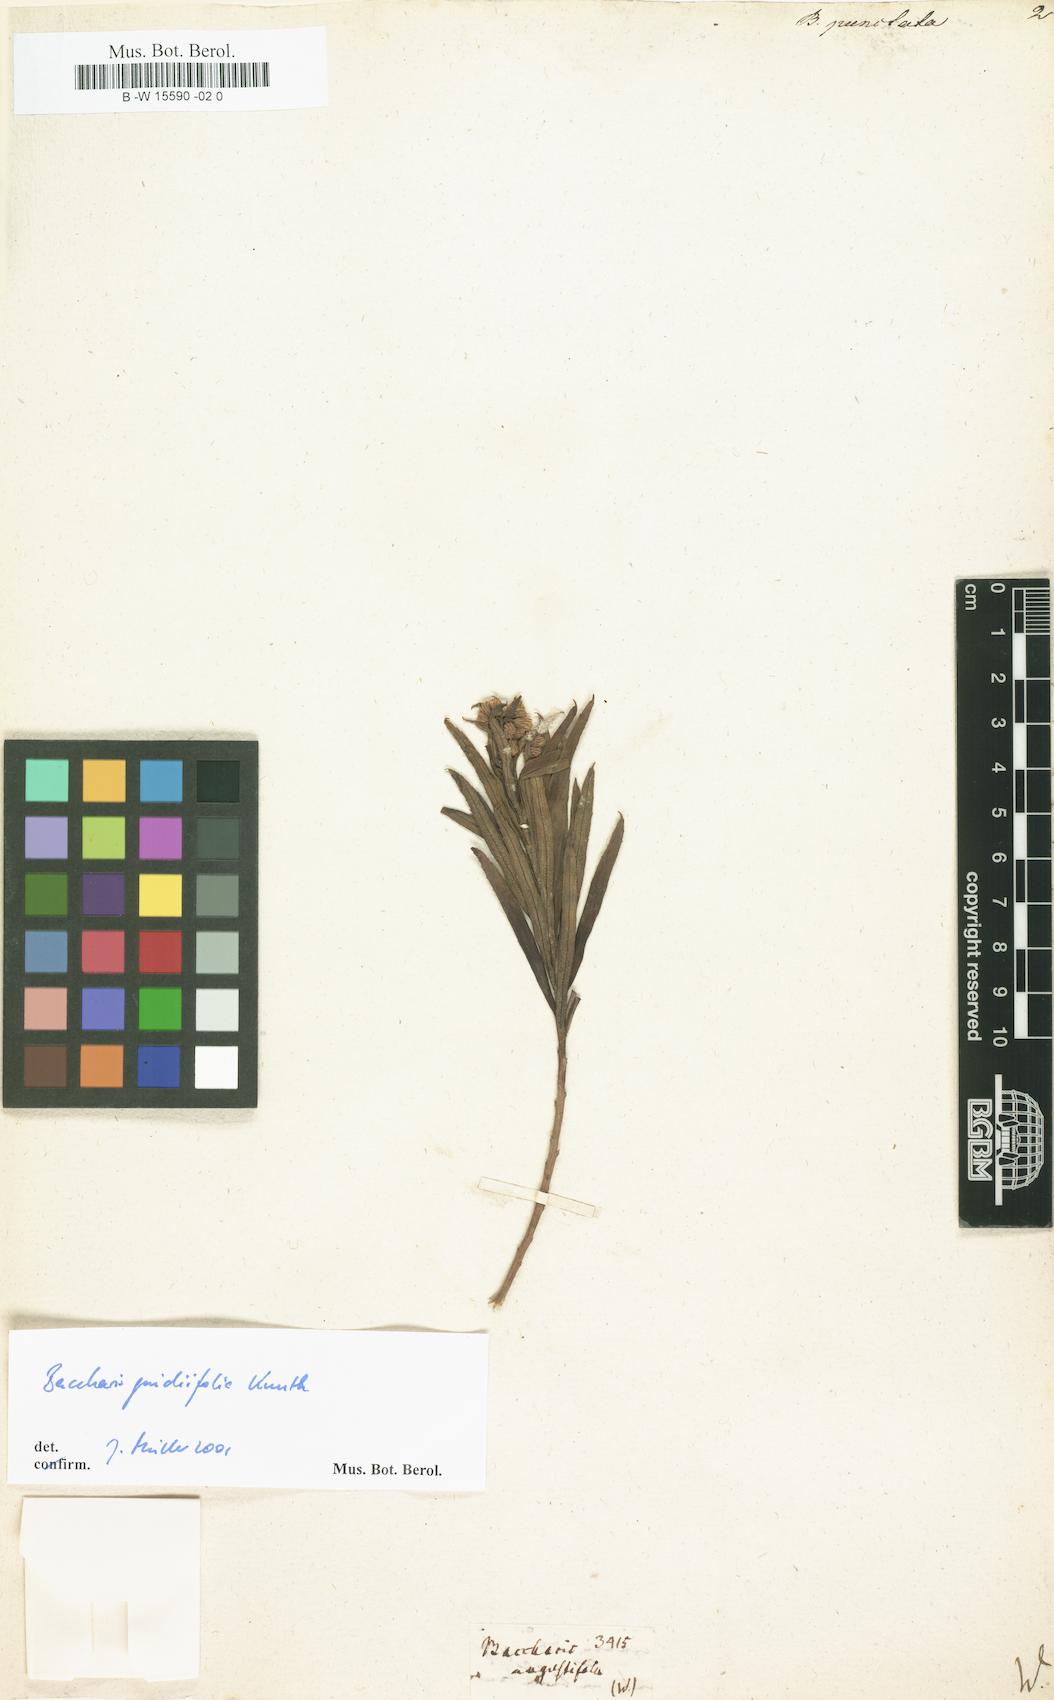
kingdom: Plantae
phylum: Tracheophyta
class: Magnoliopsida
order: Asterales
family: Asteraceae
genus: Baccharis
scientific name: Baccharis punctulata
